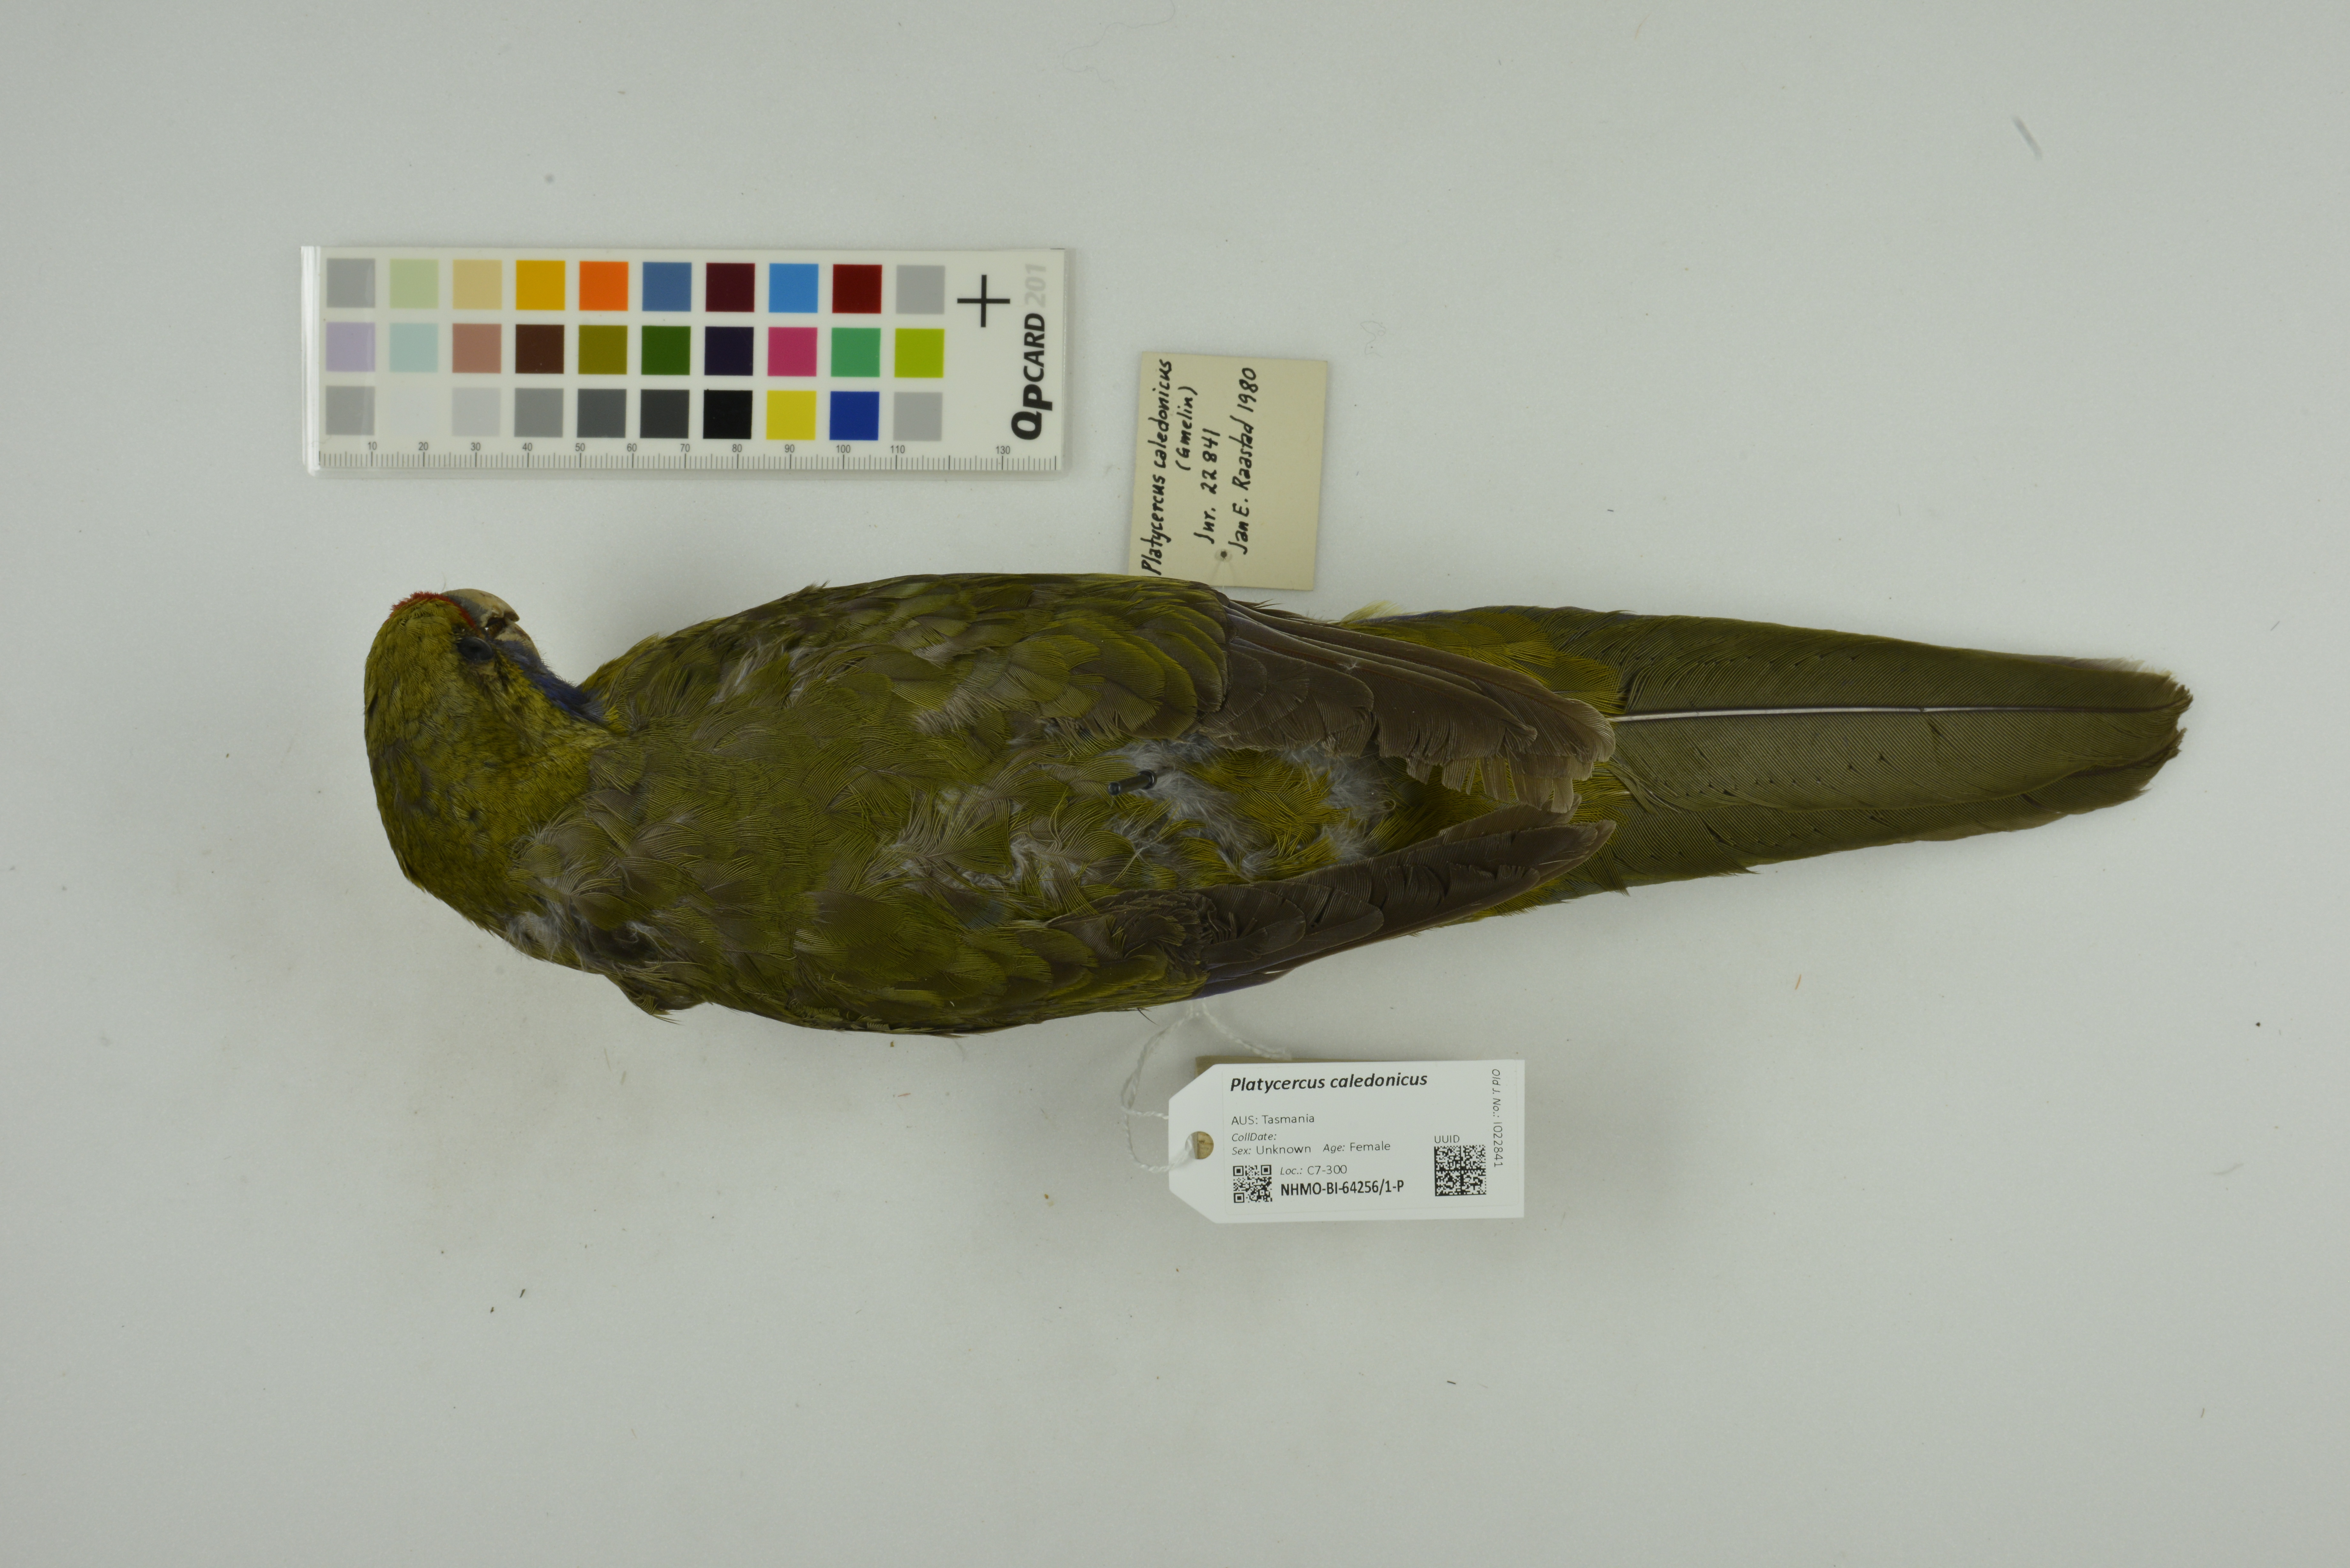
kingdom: Animalia
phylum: Chordata
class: Aves
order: Psittaciformes
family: Psittacidae
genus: Platycercus
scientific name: Platycercus caledonicus
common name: Green rosella
